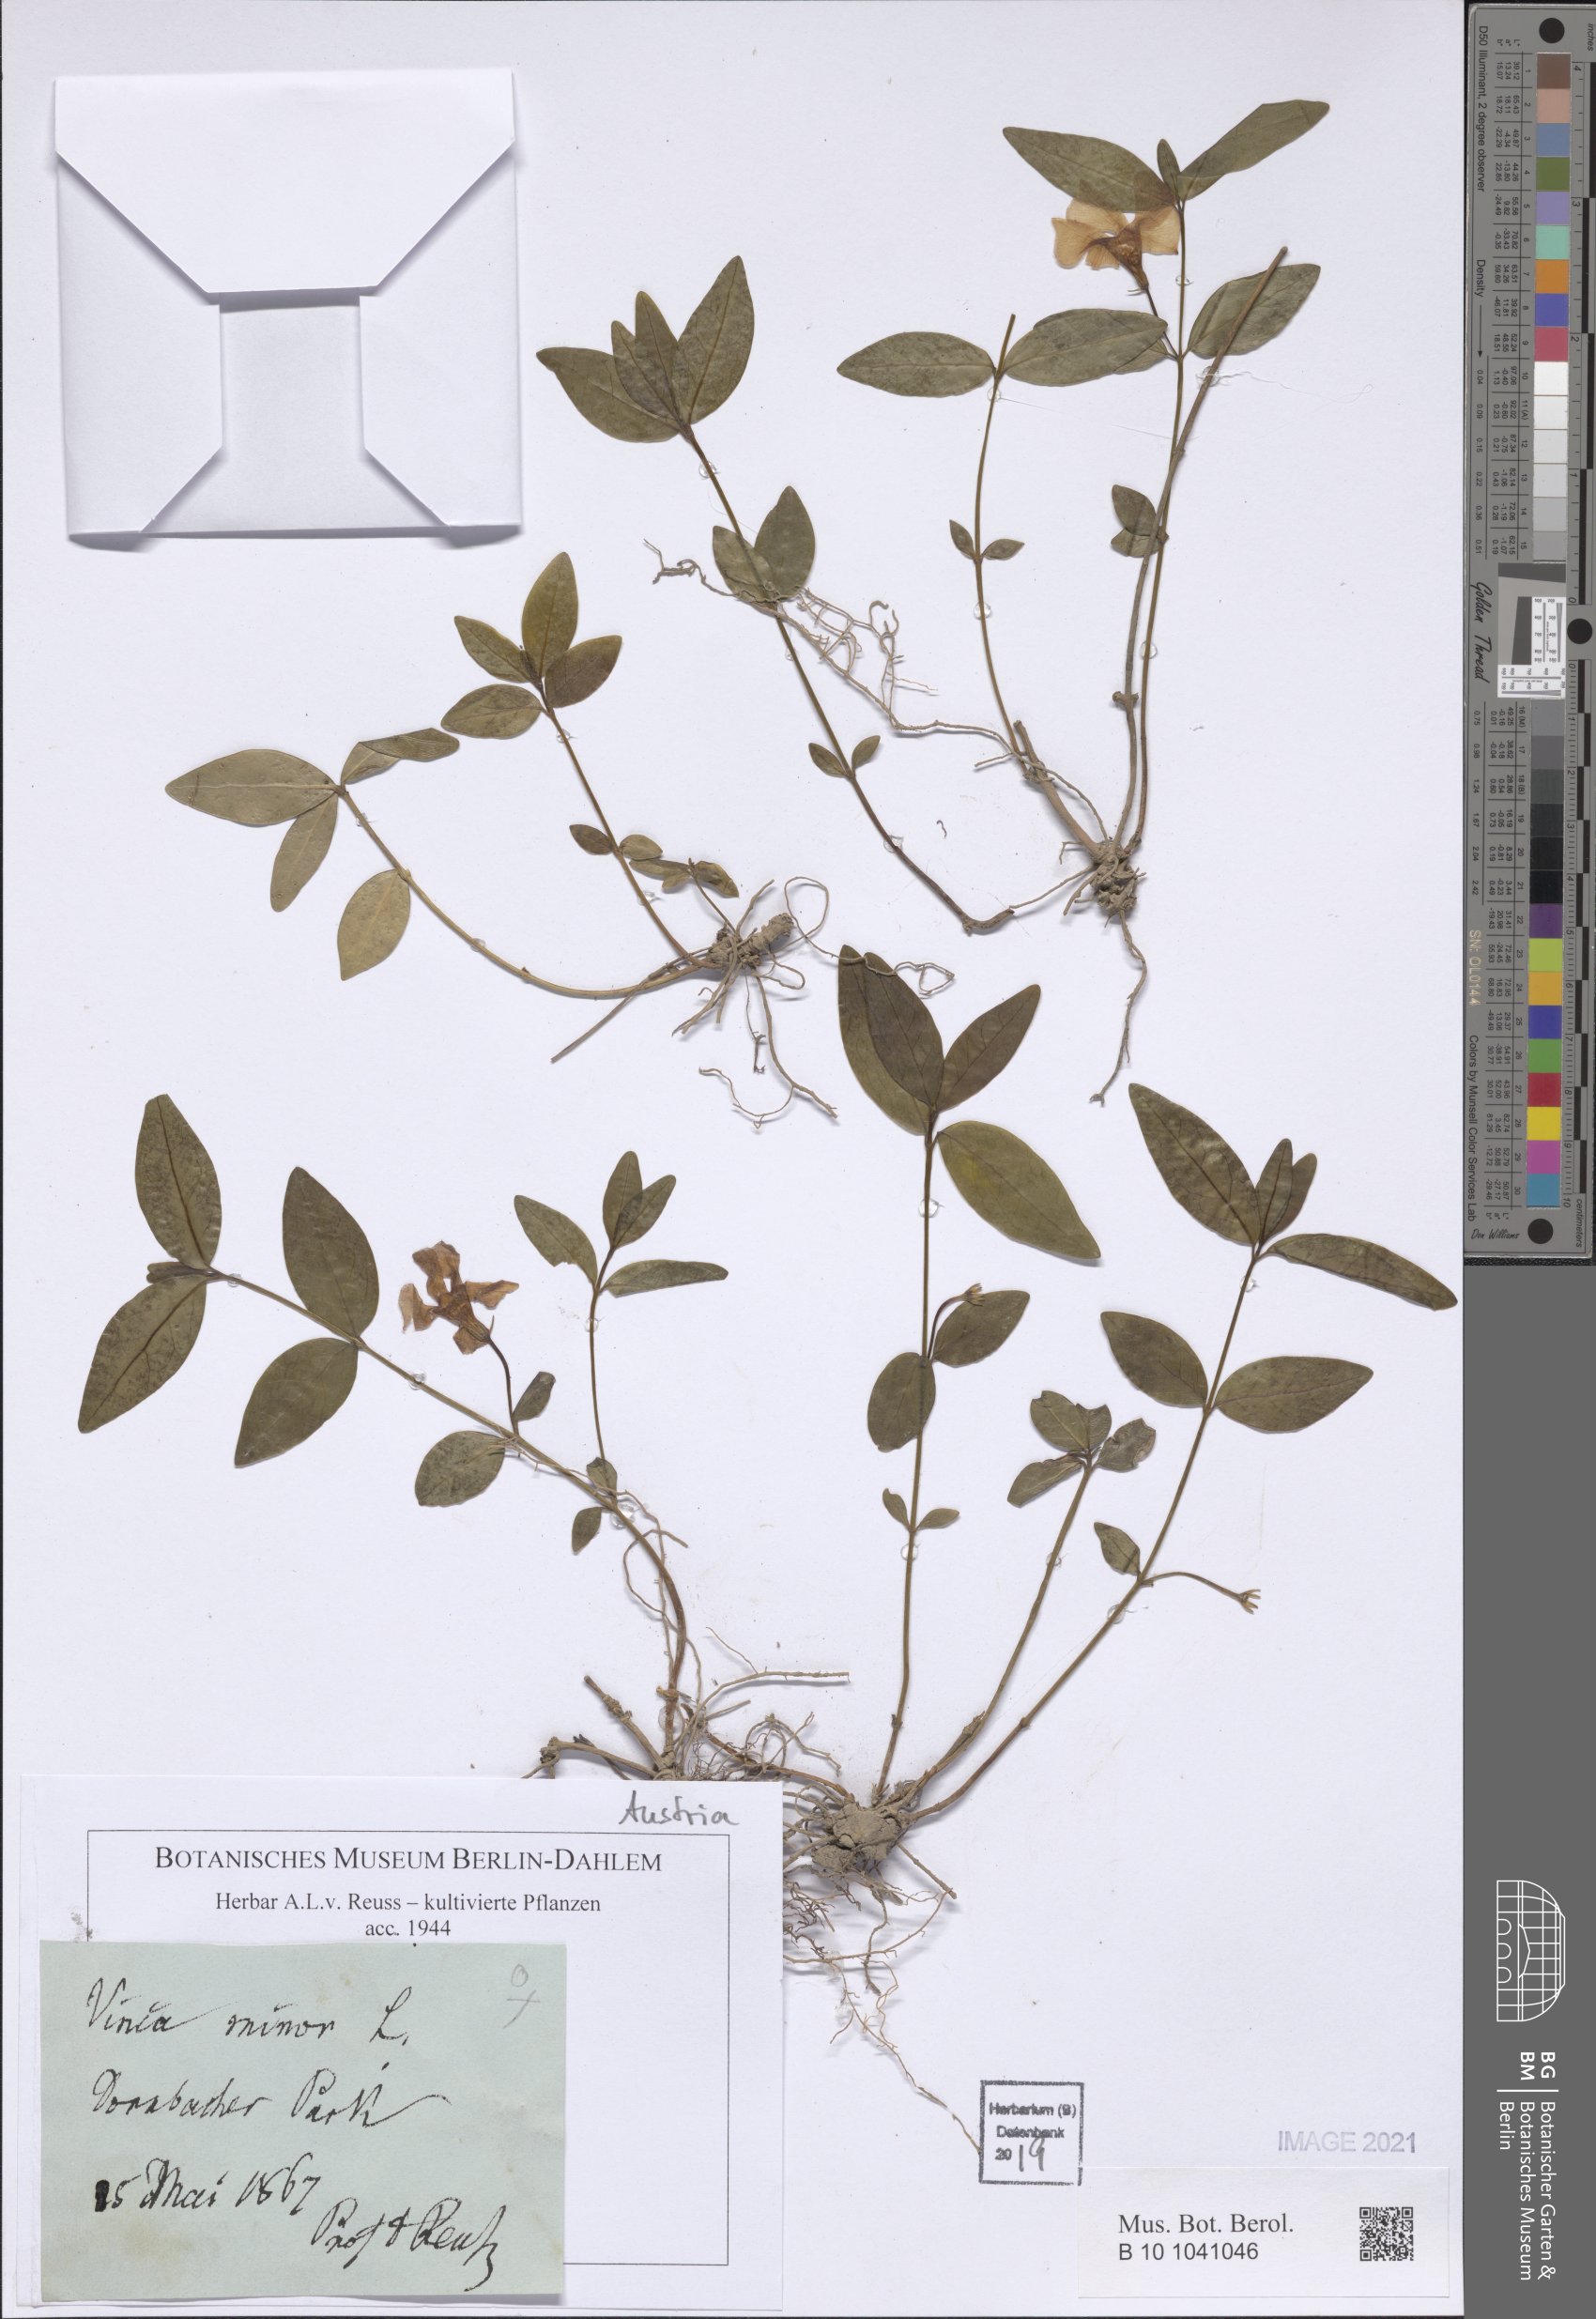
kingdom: Plantae
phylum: Tracheophyta
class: Magnoliopsida
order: Gentianales
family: Apocynaceae
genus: Vinca
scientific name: Vinca minor
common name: Lesser periwinkle
